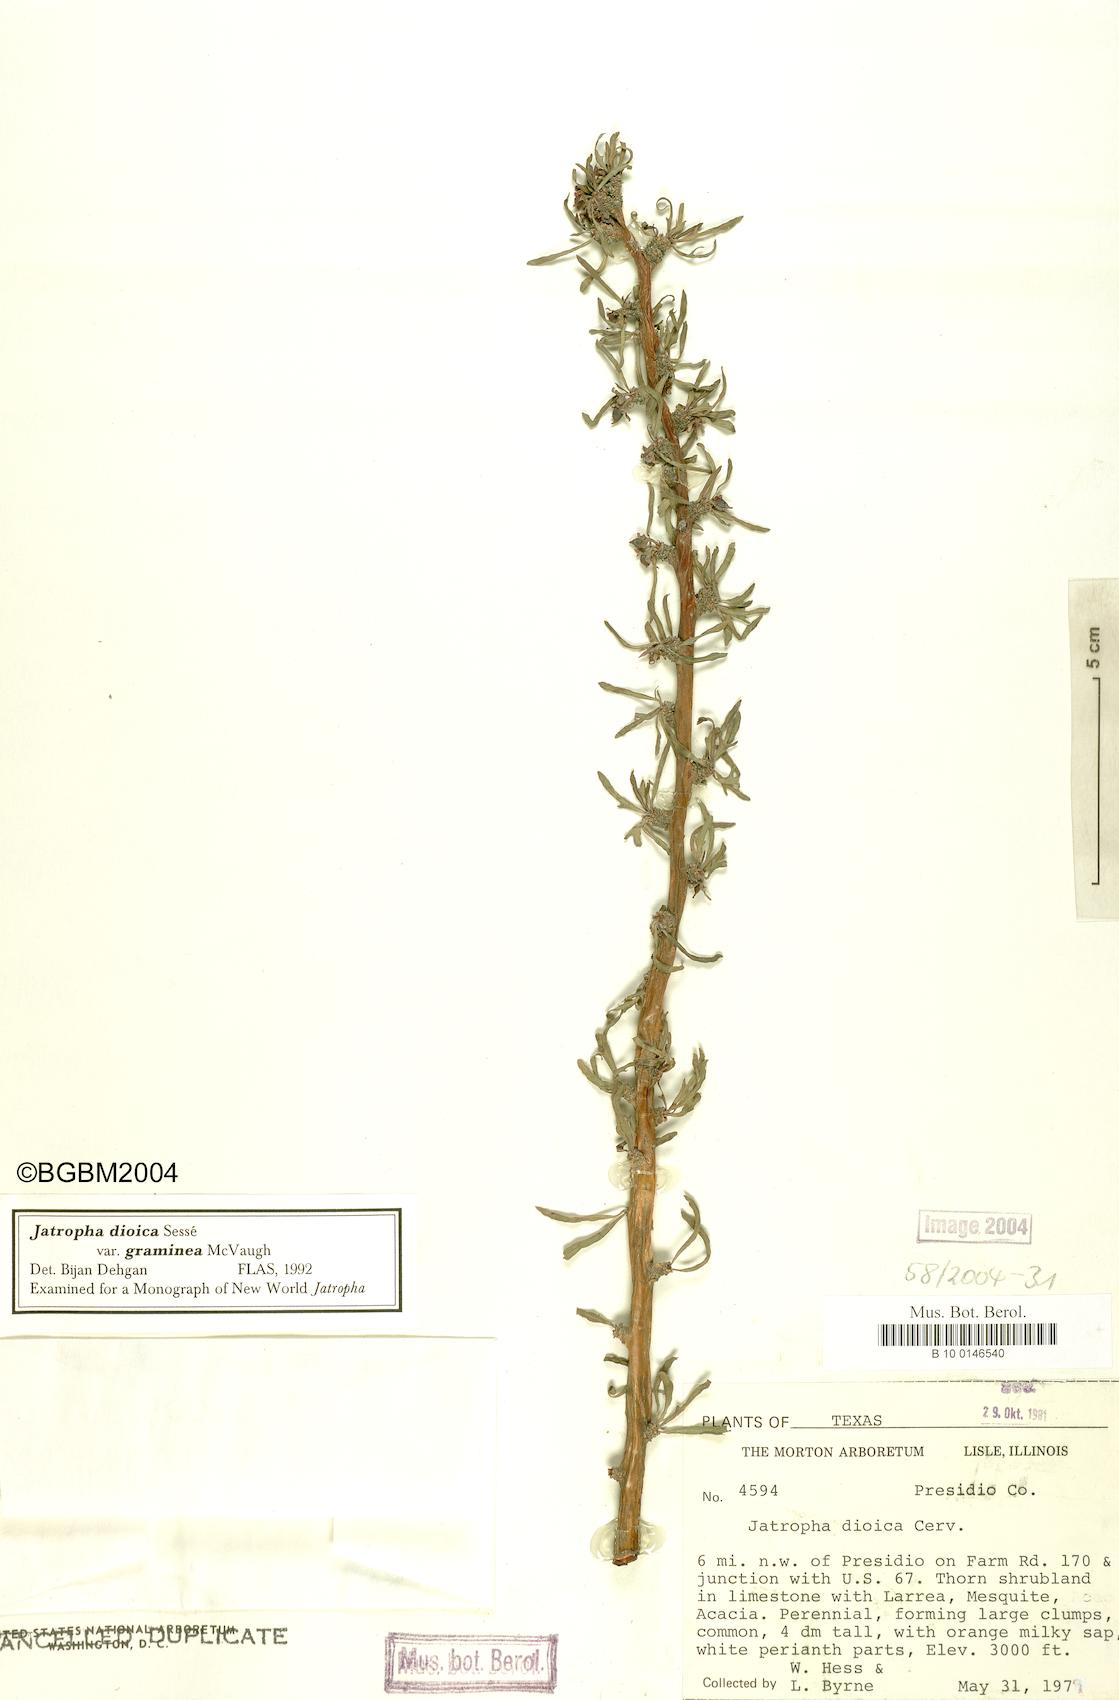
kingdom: Plantae
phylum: Tracheophyta
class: Magnoliopsida
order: Malpighiales
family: Euphorbiaceae
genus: Jatropha
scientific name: Jatropha dioica
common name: Leatherstem
